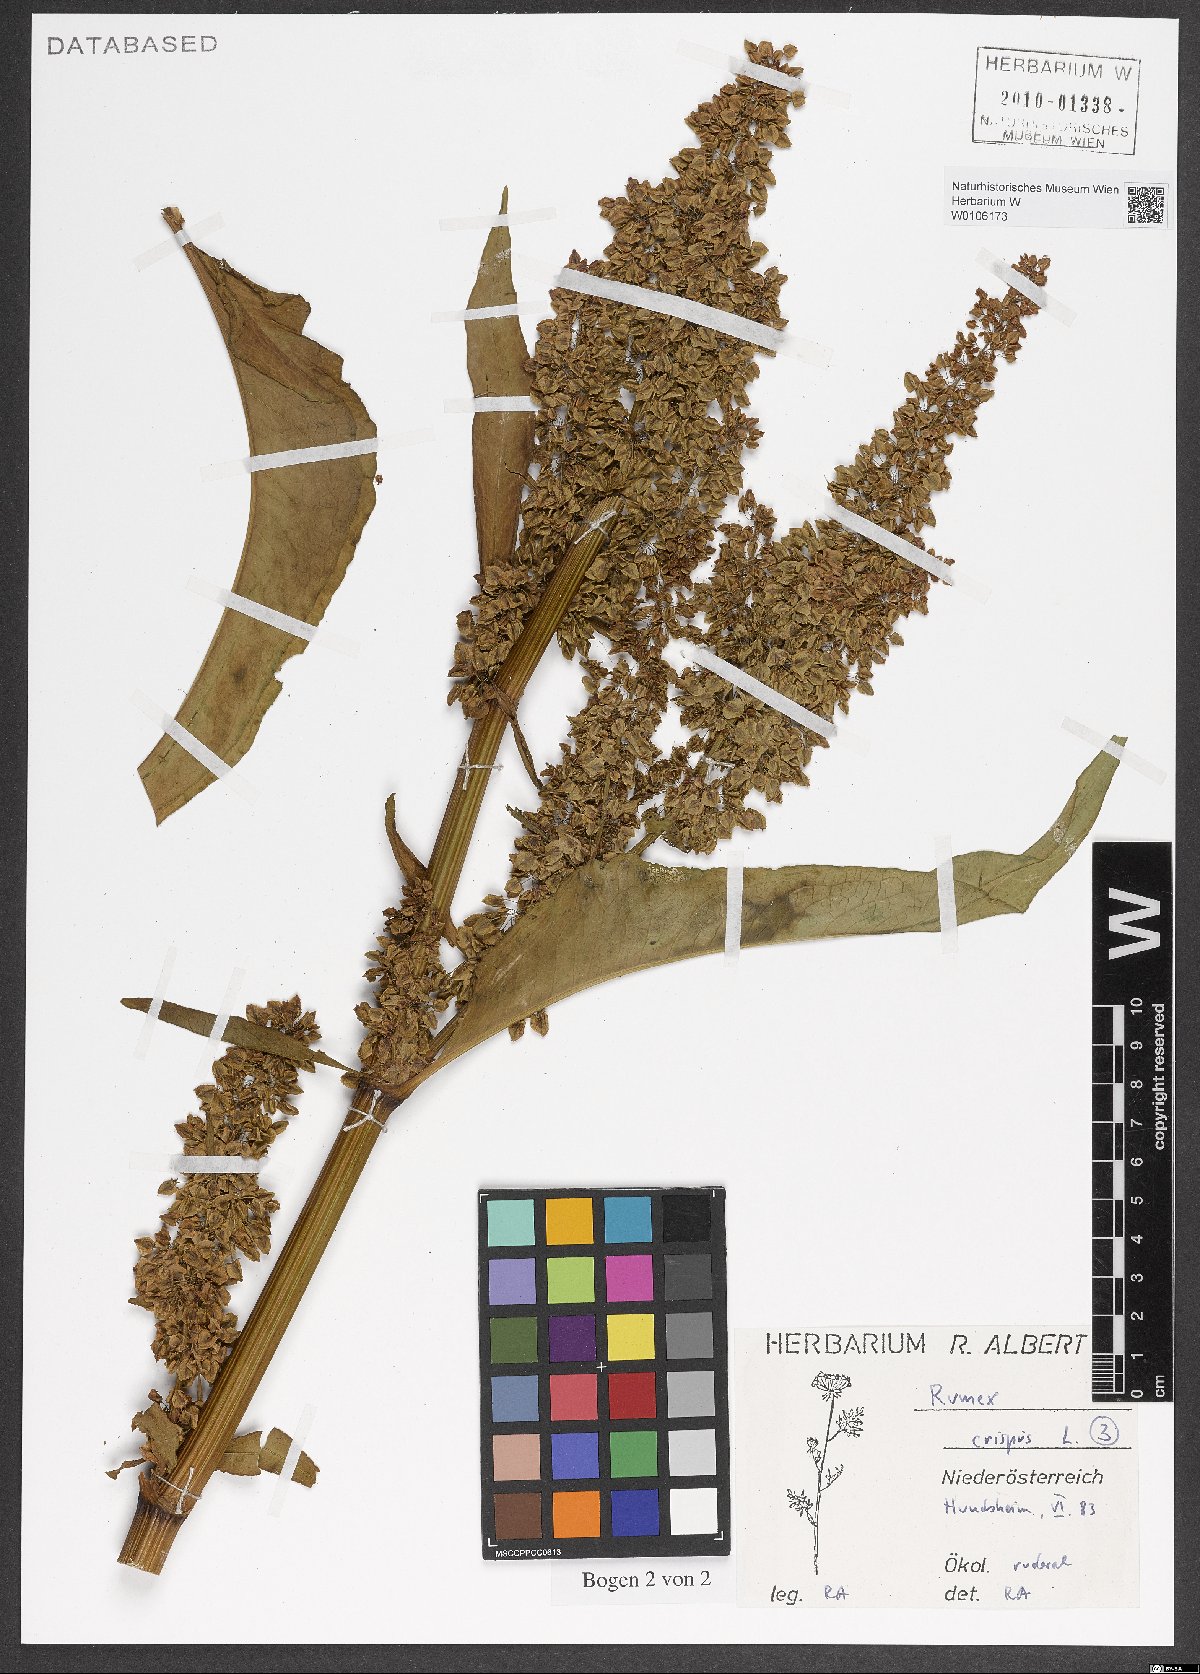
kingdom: Plantae
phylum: Tracheophyta
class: Magnoliopsida
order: Caryophyllales
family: Polygonaceae
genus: Rumex
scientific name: Rumex crispus
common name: Curled dock
